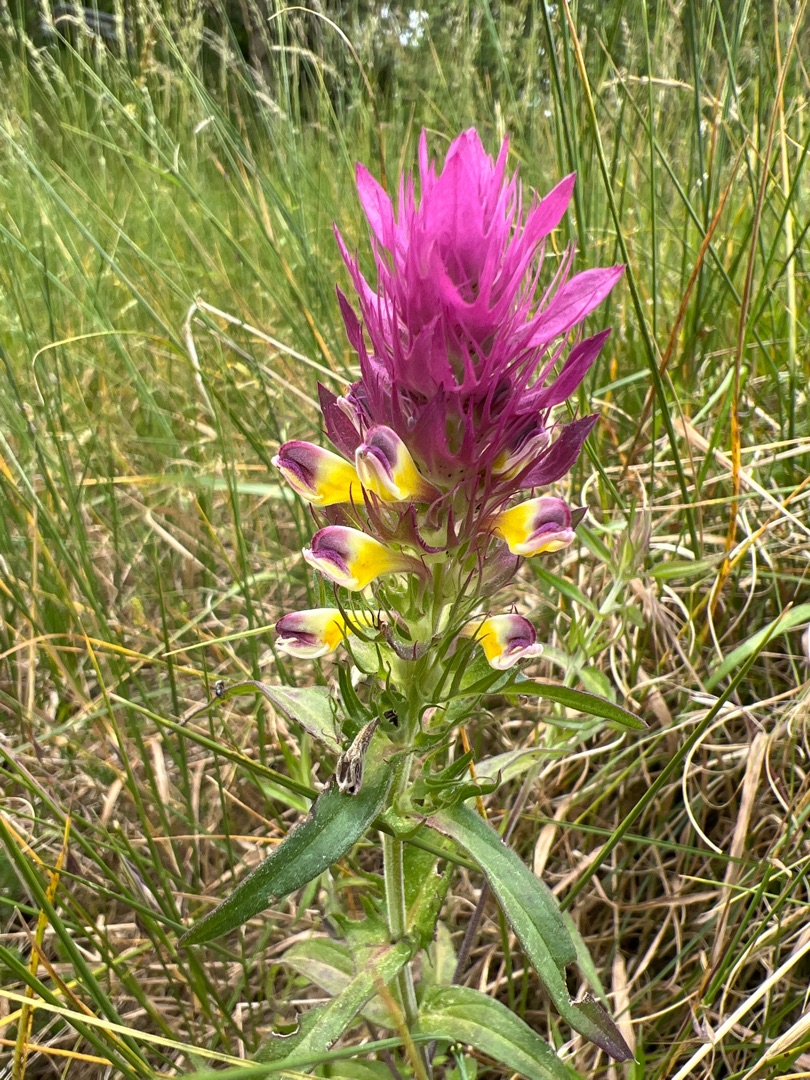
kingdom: Plantae
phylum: Tracheophyta
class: Magnoliopsida
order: Lamiales
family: Orobanchaceae
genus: Melampyrum
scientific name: Melampyrum arvense
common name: Ager-kohvede
